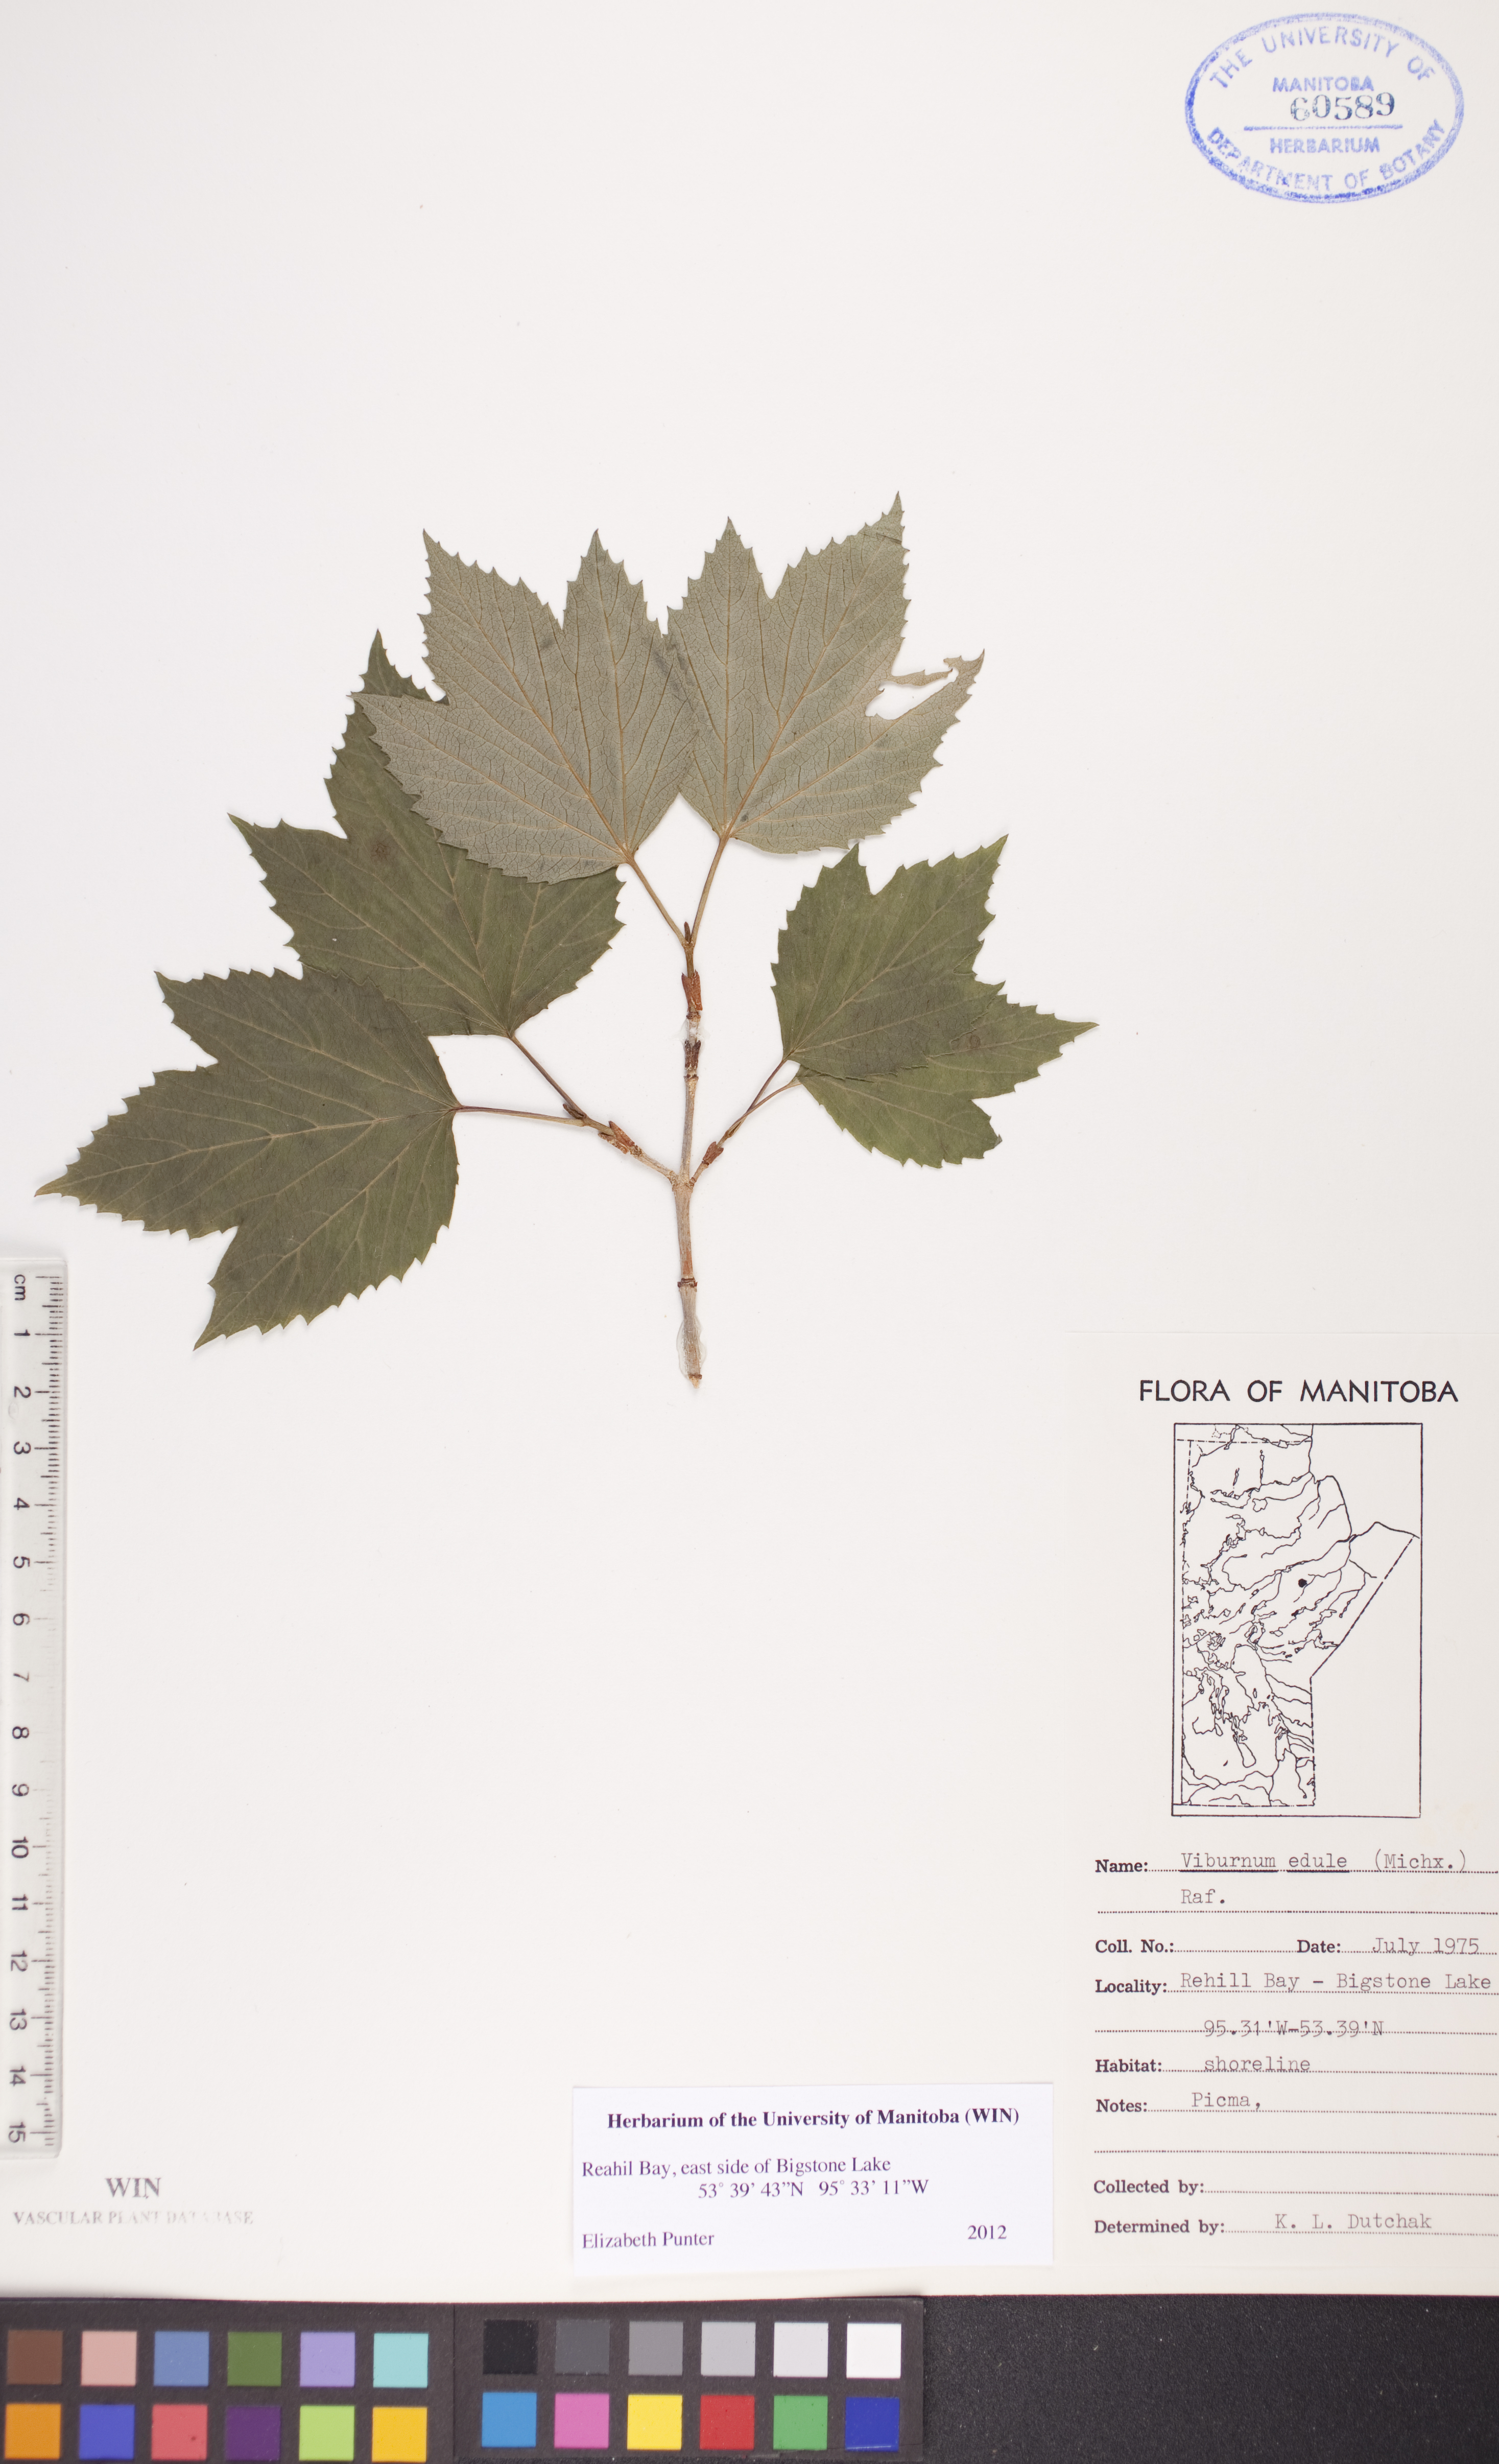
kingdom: Plantae
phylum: Tracheophyta
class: Magnoliopsida
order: Dipsacales
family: Viburnaceae
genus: Viburnum
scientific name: Viburnum edule
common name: Mooseberry
